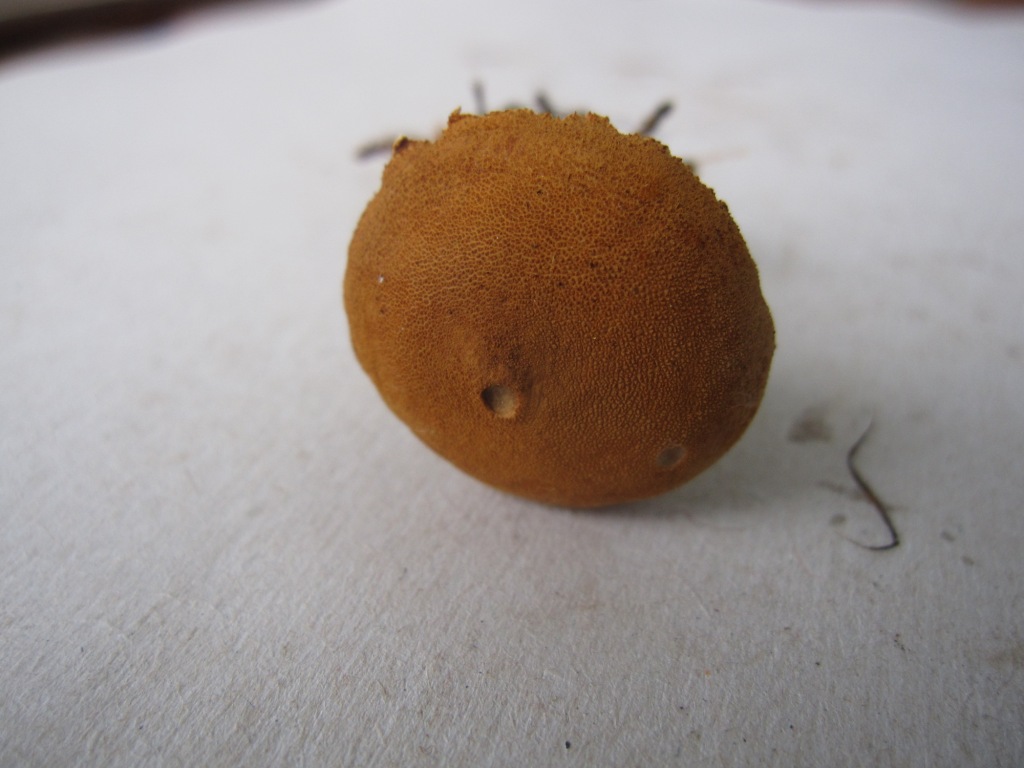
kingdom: Fungi
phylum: Basidiomycota
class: Agaricomycetes
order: Agaricales
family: Tricholomataceae
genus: Cystoderma
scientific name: Cystoderma amianthinum
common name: okkergul grynhat
